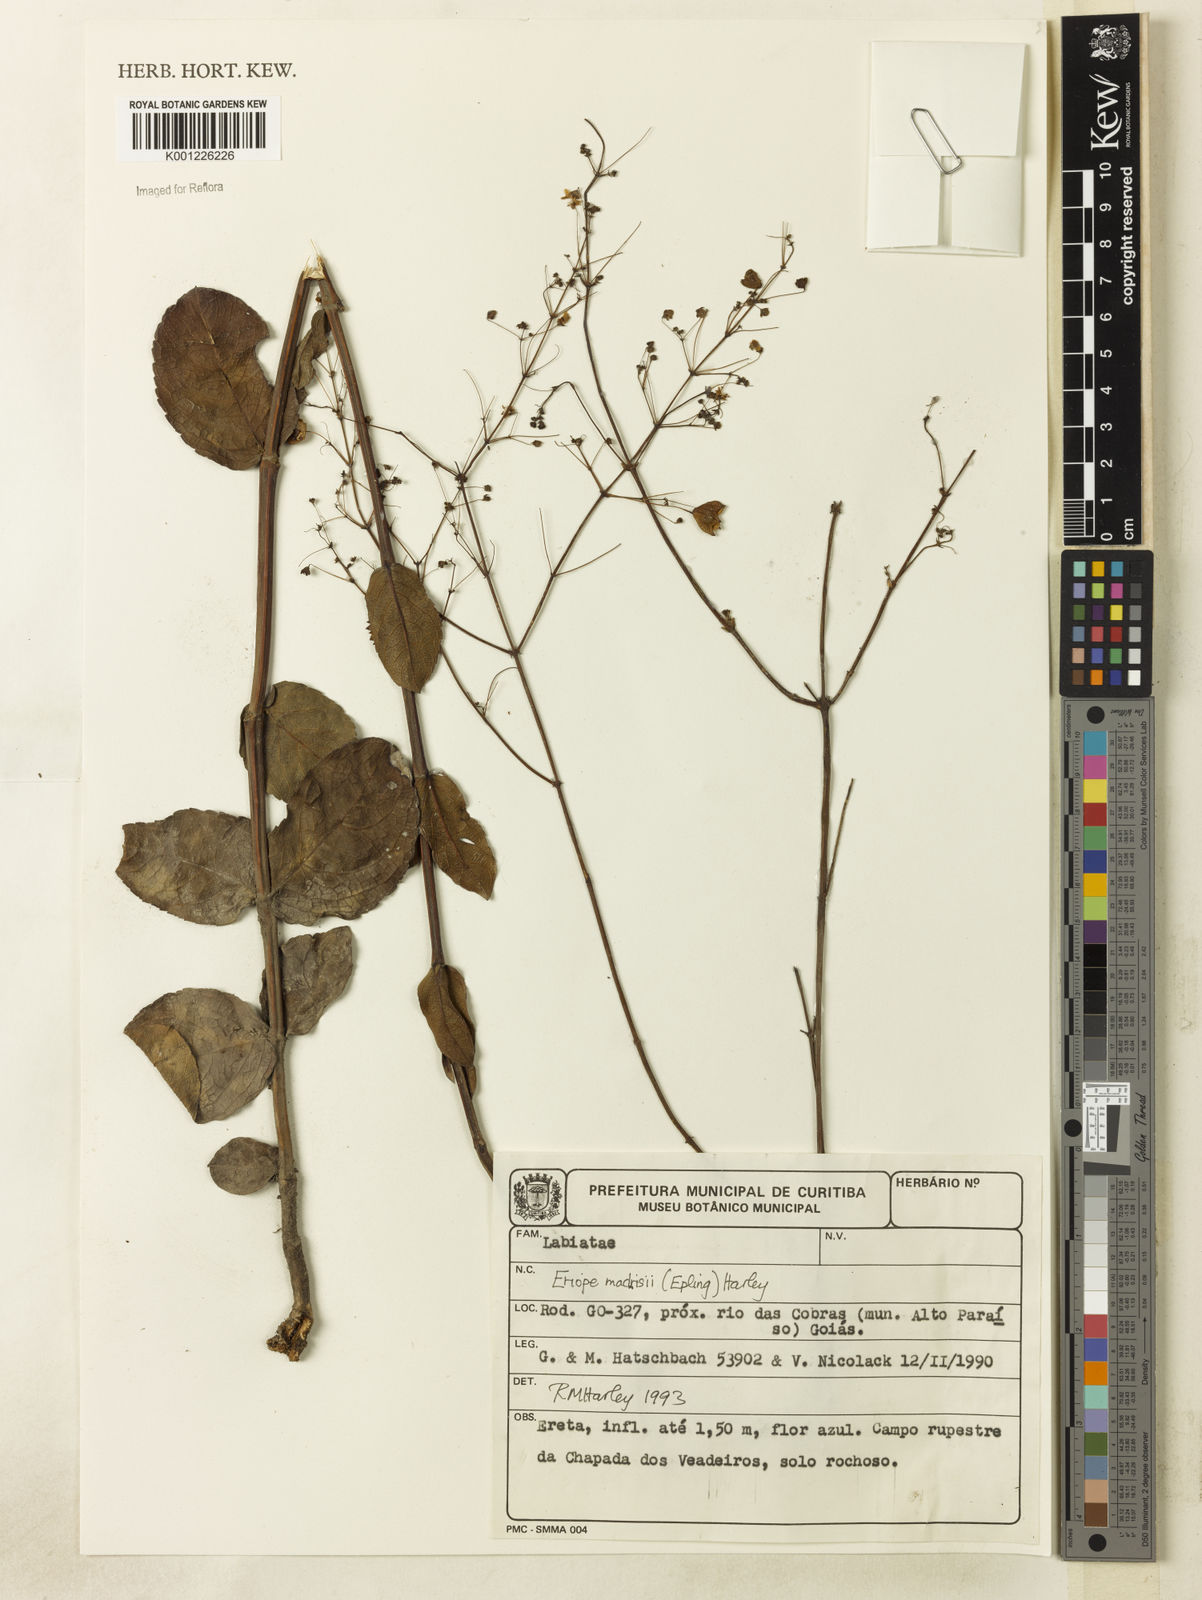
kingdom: Plantae
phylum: Tracheophyta
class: Magnoliopsida
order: Lamiales
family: Lamiaceae
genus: Eriope
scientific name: Eriope machrisae
